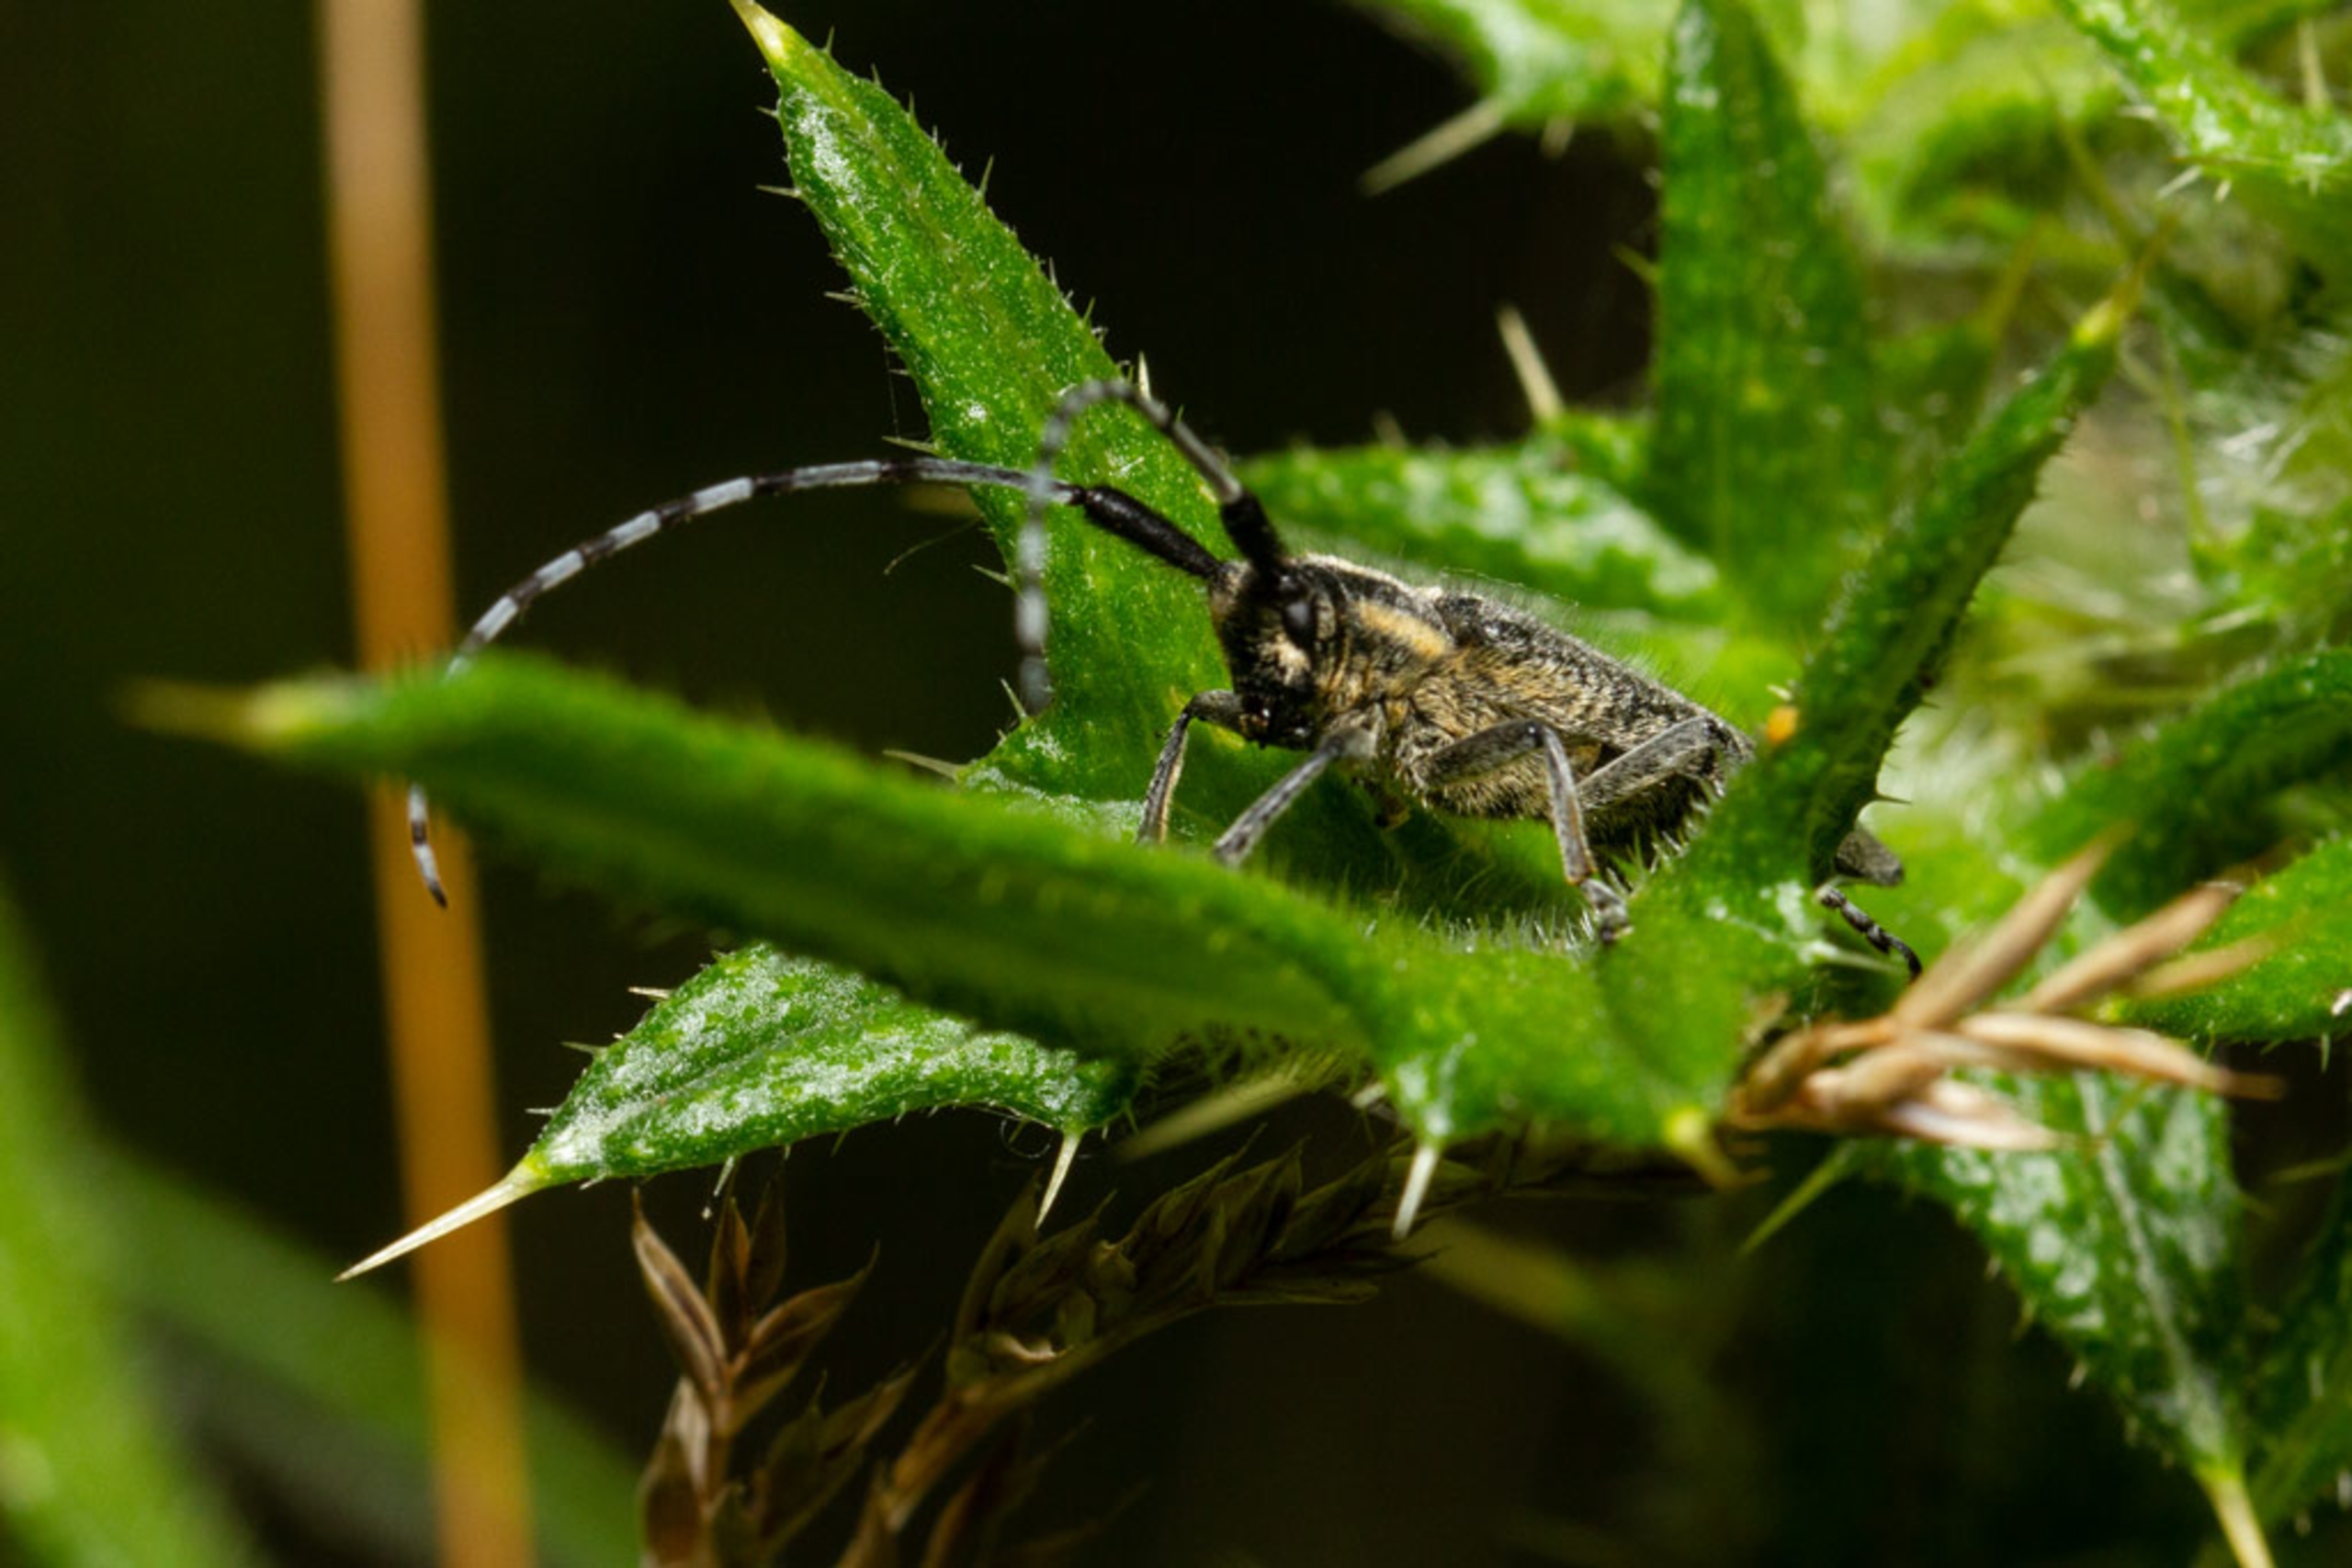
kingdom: Animalia
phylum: Arthropoda
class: Insecta
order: Coleoptera
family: Cerambycidae
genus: Agapanthia
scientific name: Agapanthia villosoviridescens
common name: Tidselbuk
